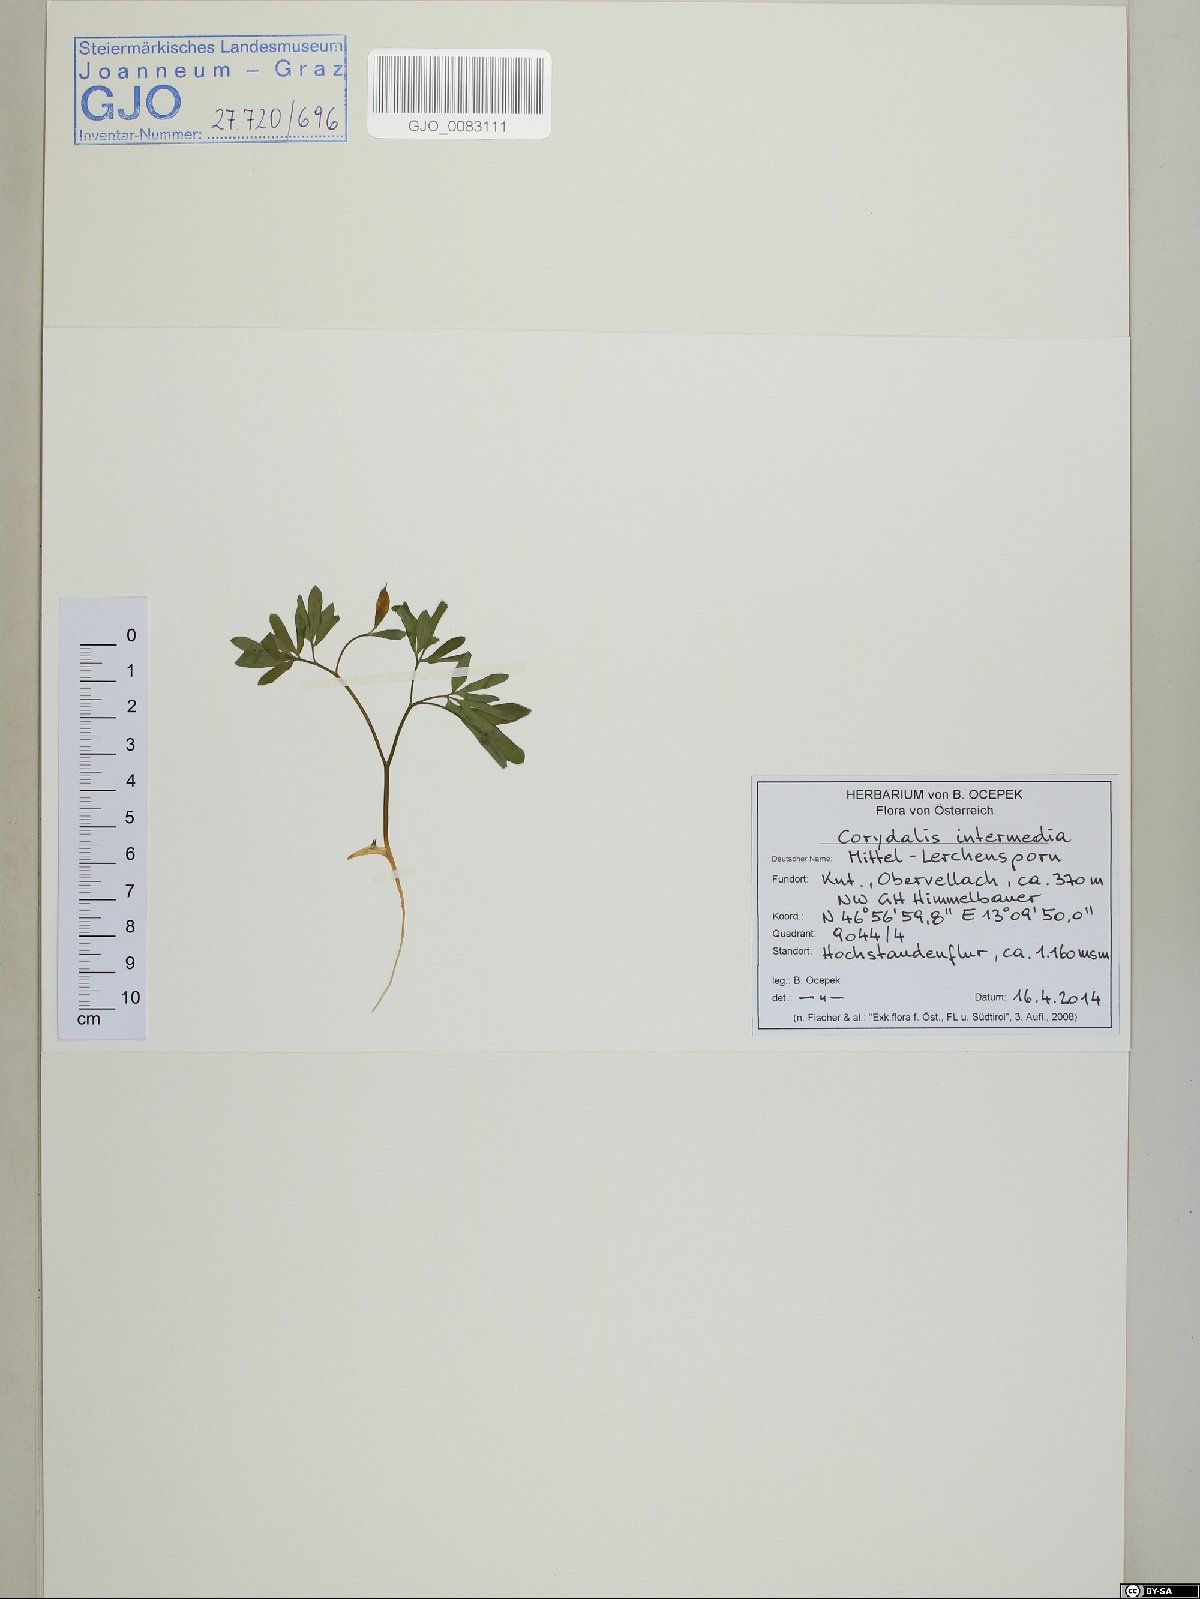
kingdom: Plantae
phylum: Tracheophyta
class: Magnoliopsida
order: Ranunculales
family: Papaveraceae
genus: Corydalis
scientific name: Corydalis intermedia
